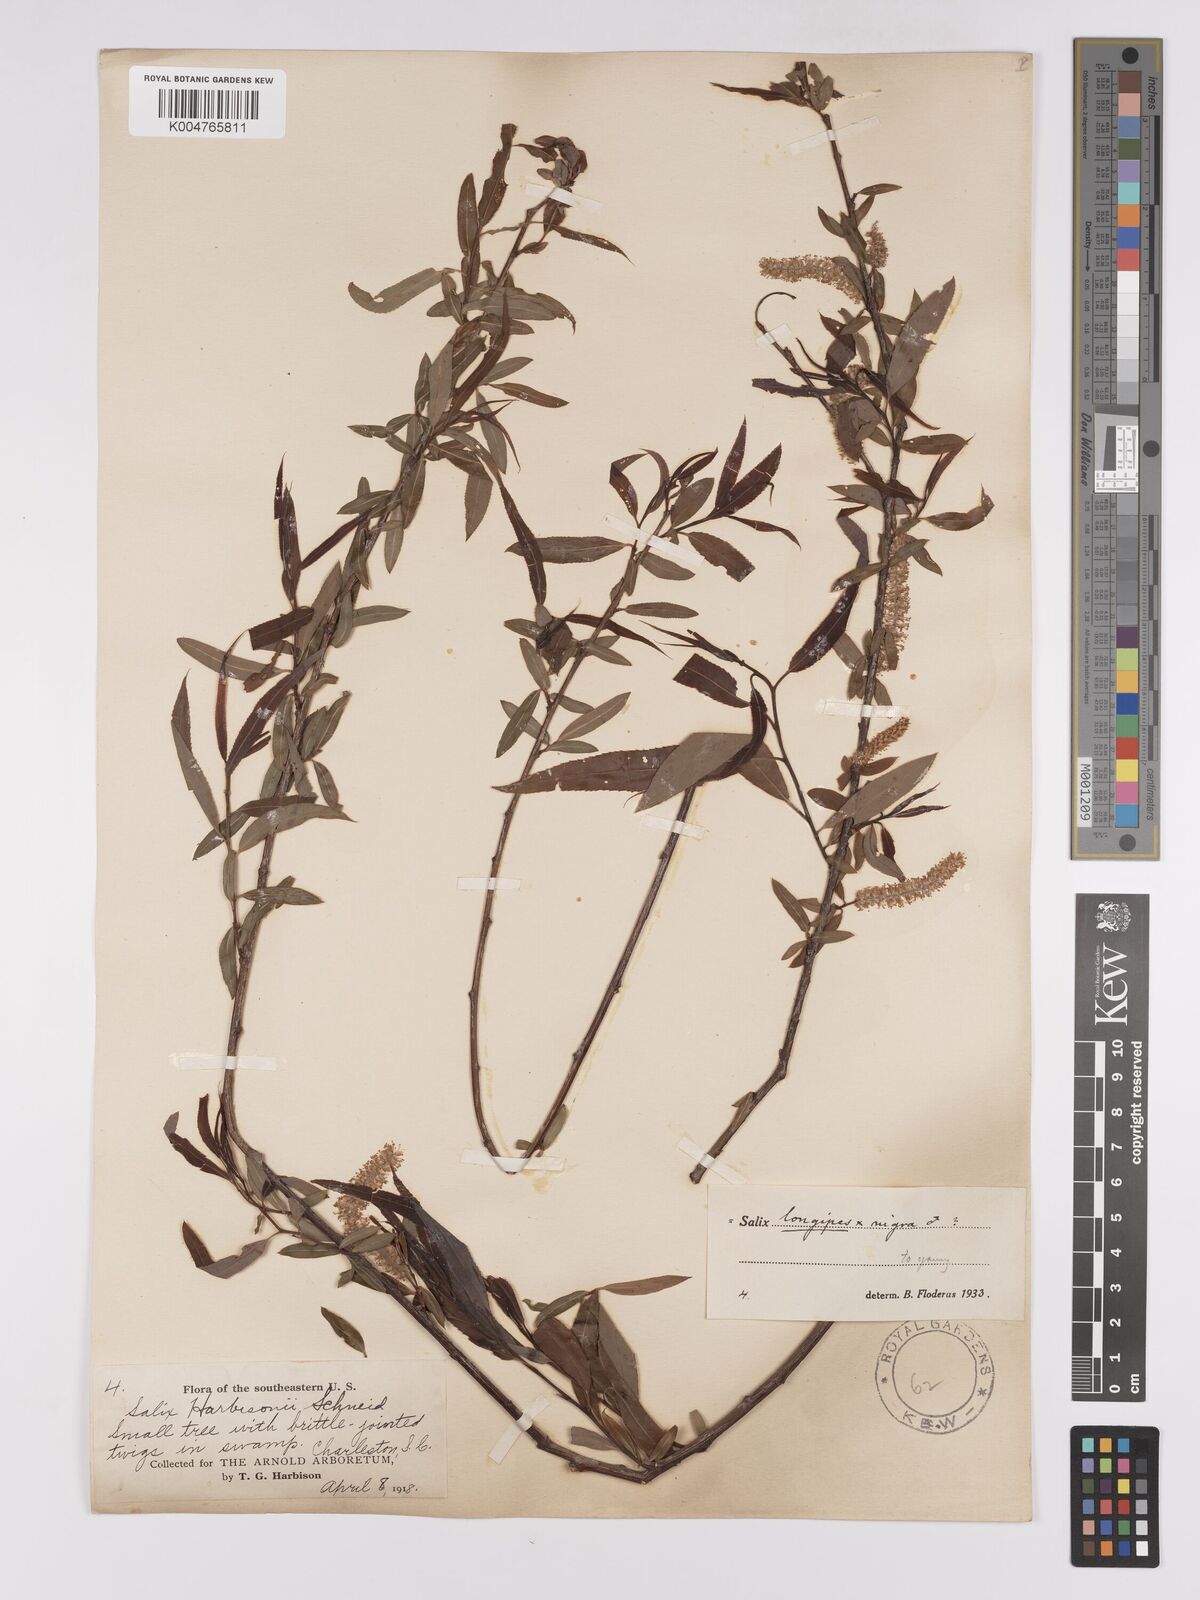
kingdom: Plantae
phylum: Tracheophyta
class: Magnoliopsida
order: Malpighiales
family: Salicaceae
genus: Salix
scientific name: Salix fruticulosa
